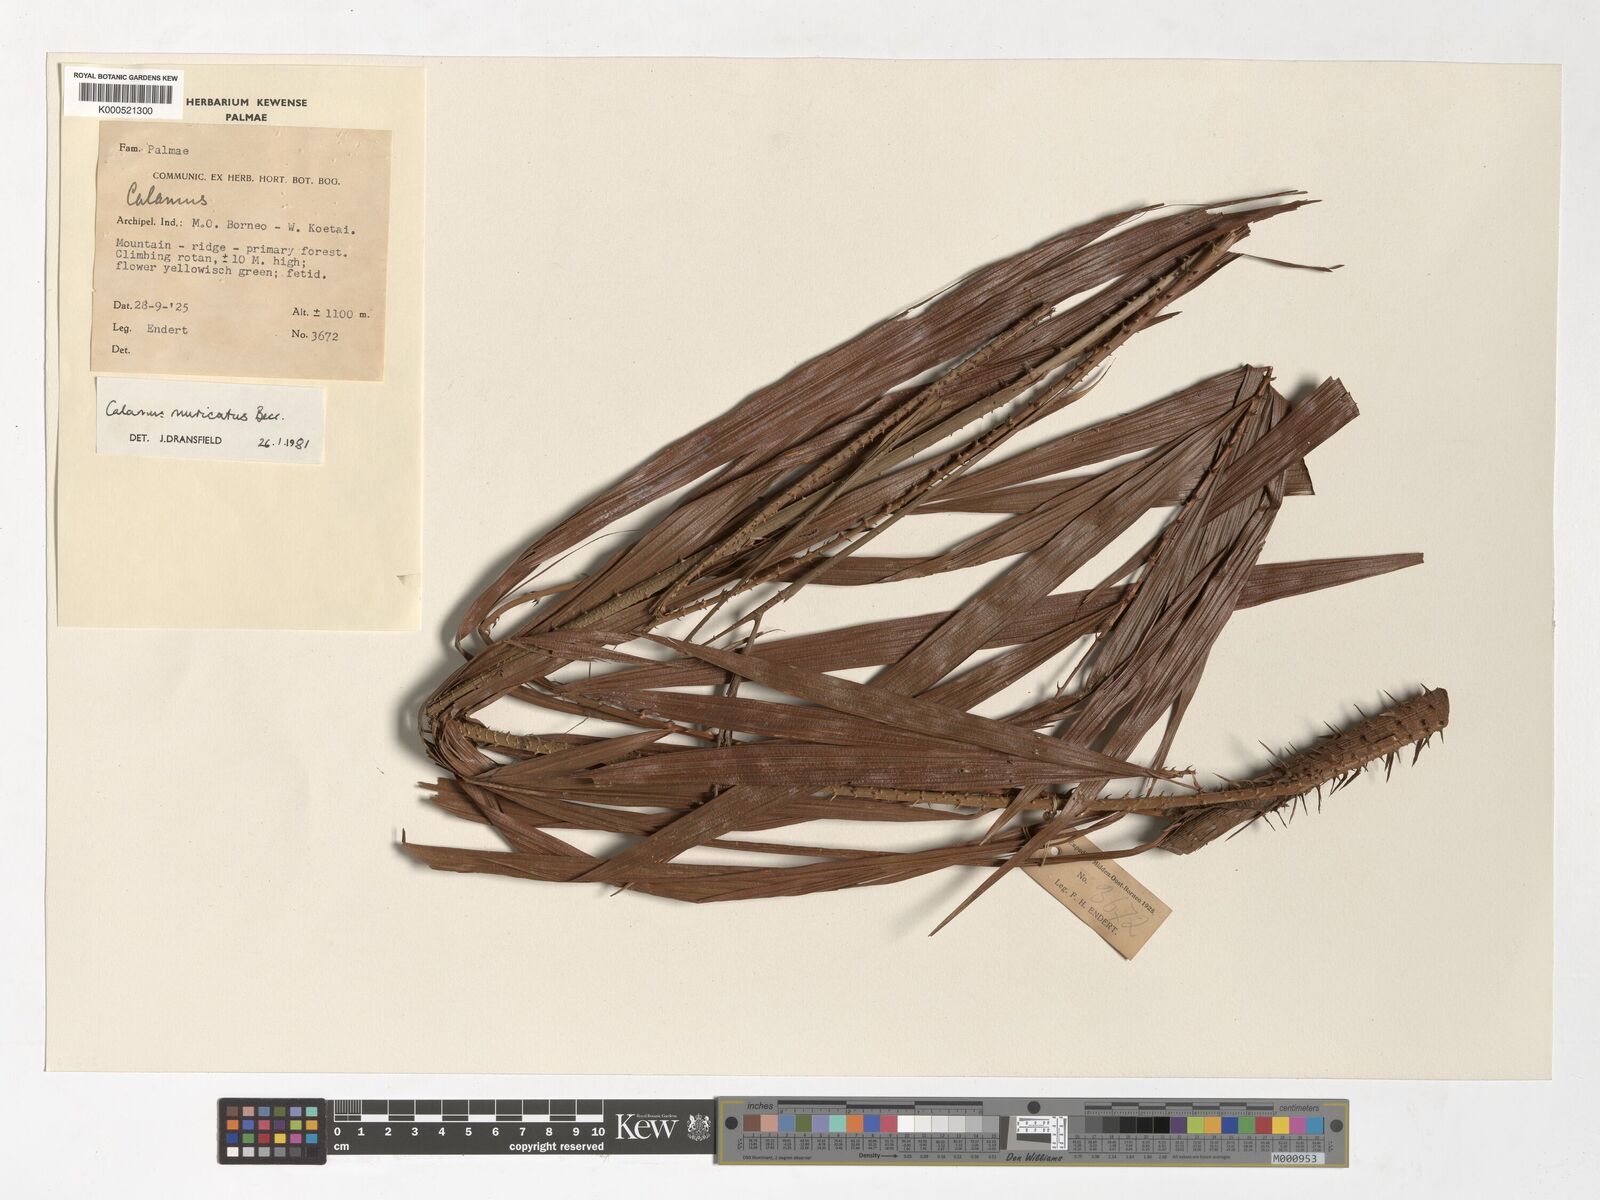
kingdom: Plantae
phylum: Tracheophyta
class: Liliopsida
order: Arecales
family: Arecaceae
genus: Calamus
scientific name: Calamus muricatus
